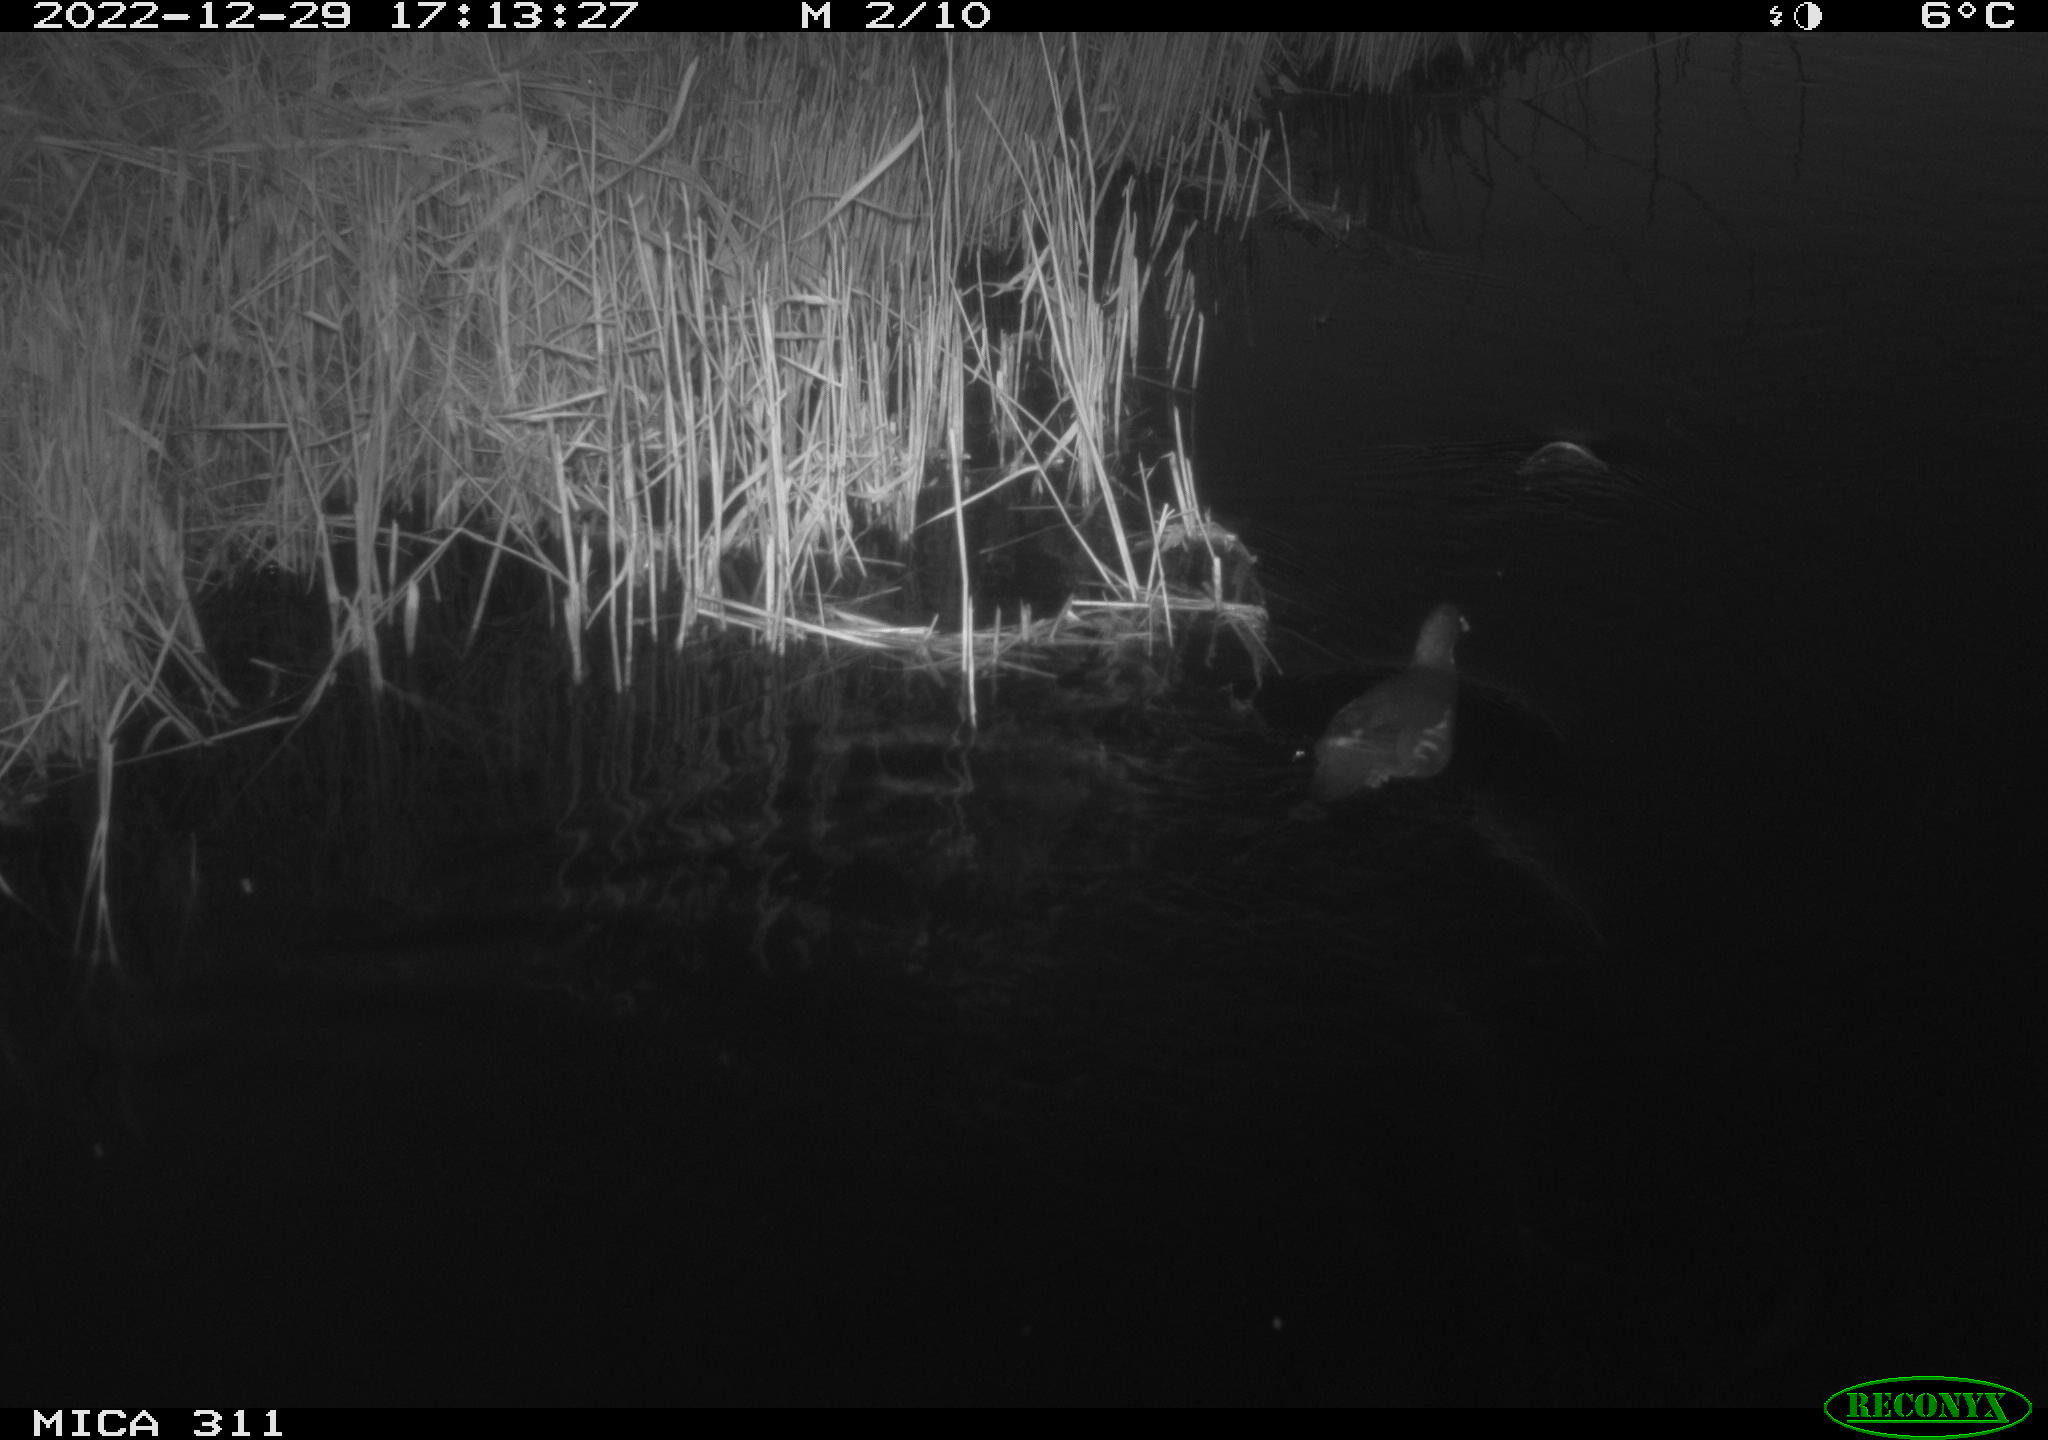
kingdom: Animalia
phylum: Chordata
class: Aves
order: Gruiformes
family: Rallidae
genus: Gallinula
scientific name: Gallinula chloropus
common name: Common moorhen
